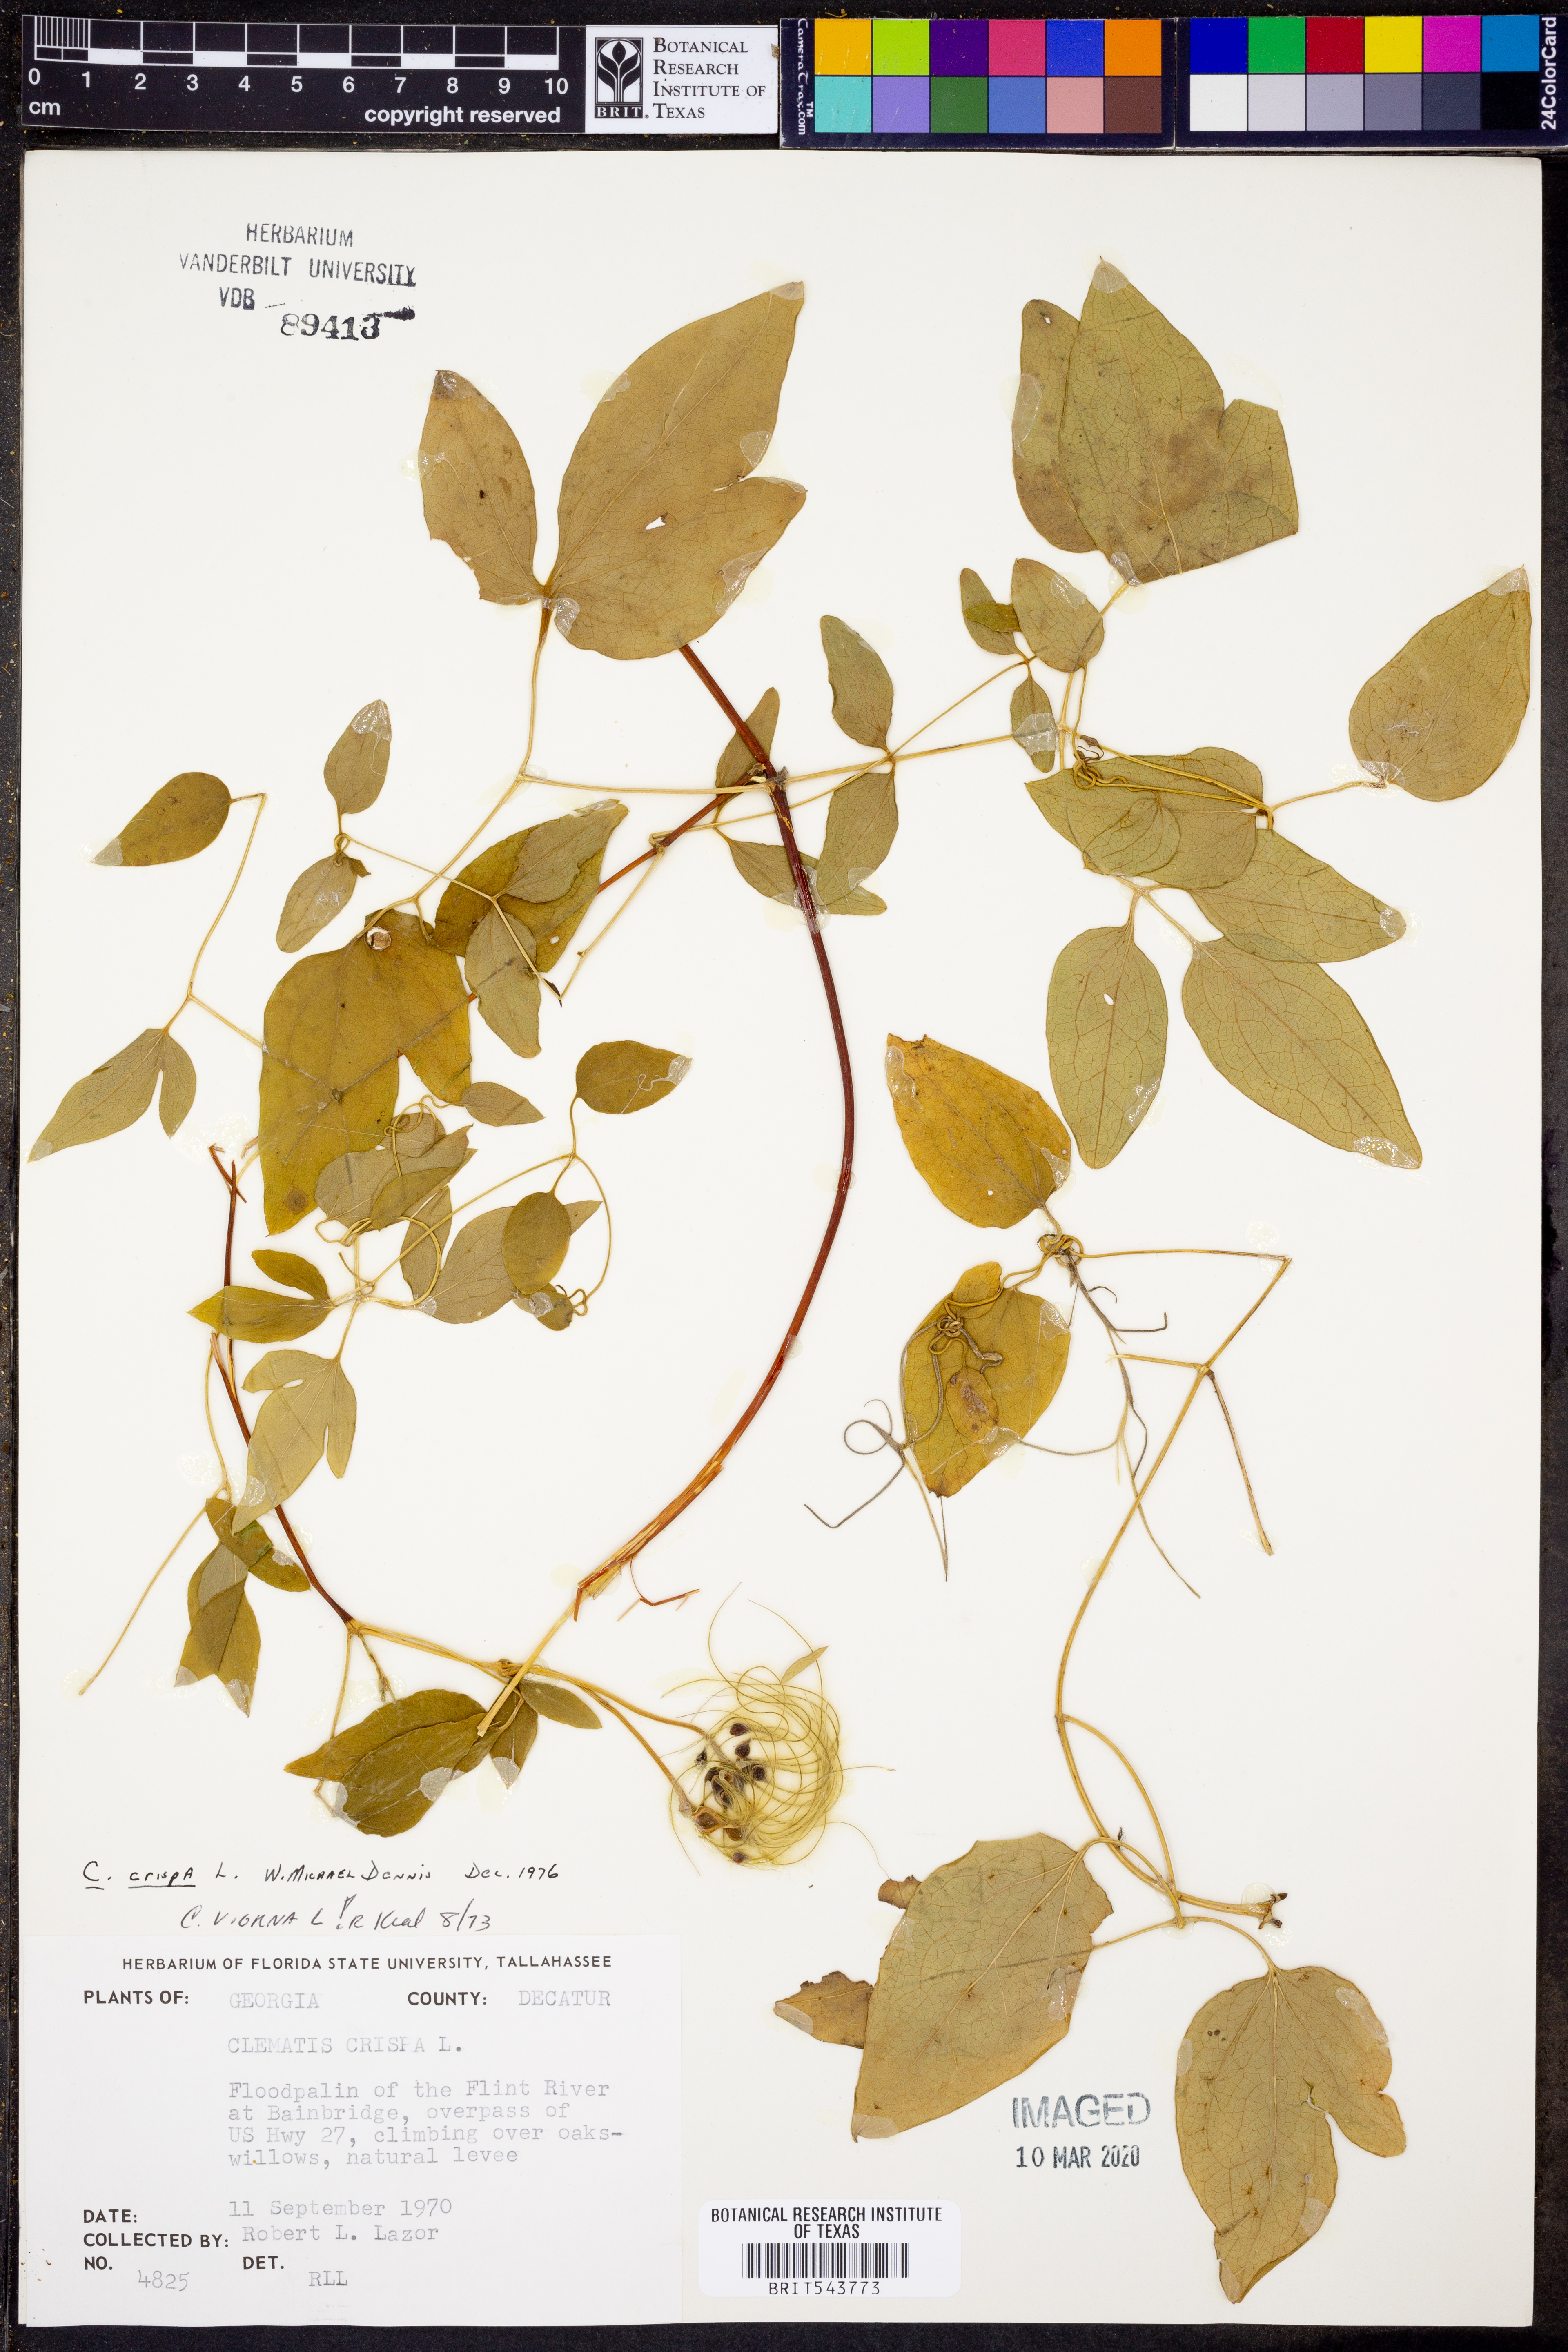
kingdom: Plantae
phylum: Tracheophyta
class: Magnoliopsida
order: Ranunculales
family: Ranunculaceae
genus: Clematis
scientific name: Clematis crispa
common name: Curly clematis
